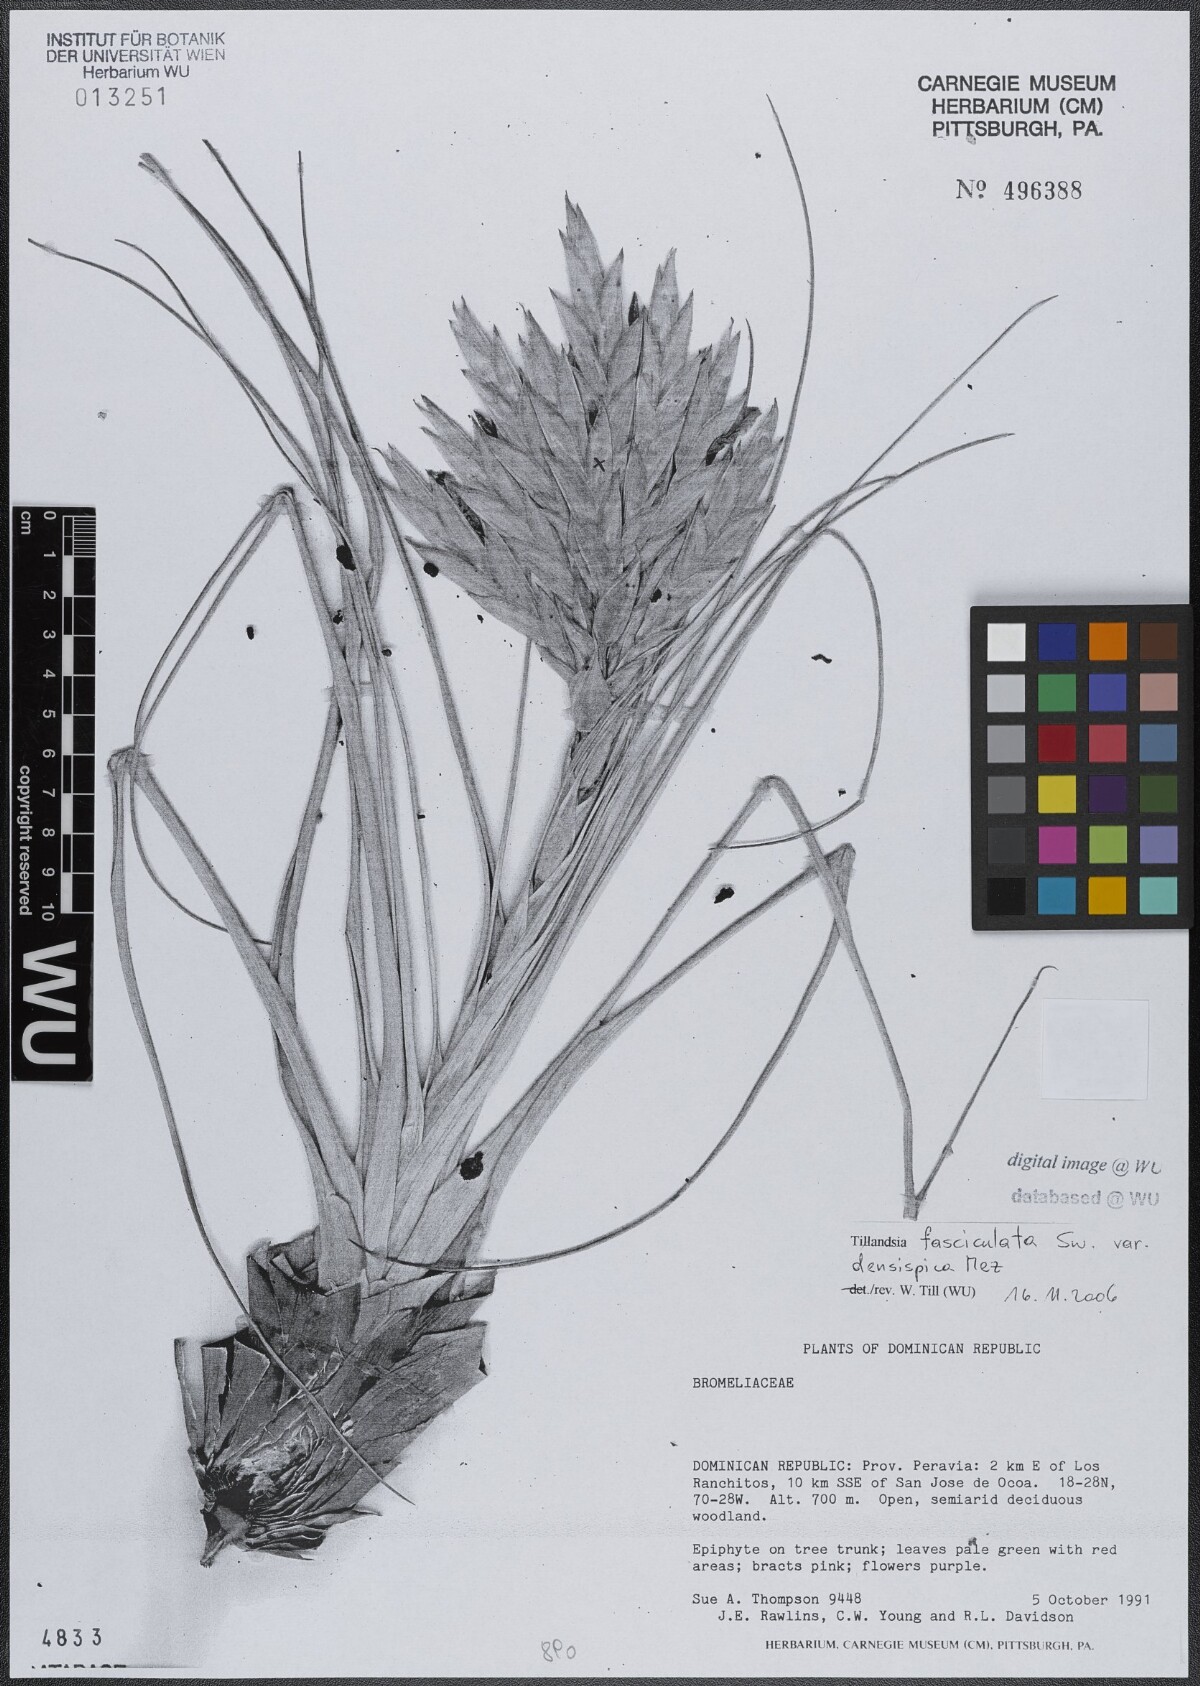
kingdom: Plantae
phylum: Tracheophyta
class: Liliopsida
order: Poales
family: Bromeliaceae
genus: Tillandsia
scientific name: Tillandsia fasciculata
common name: Giant airplant
